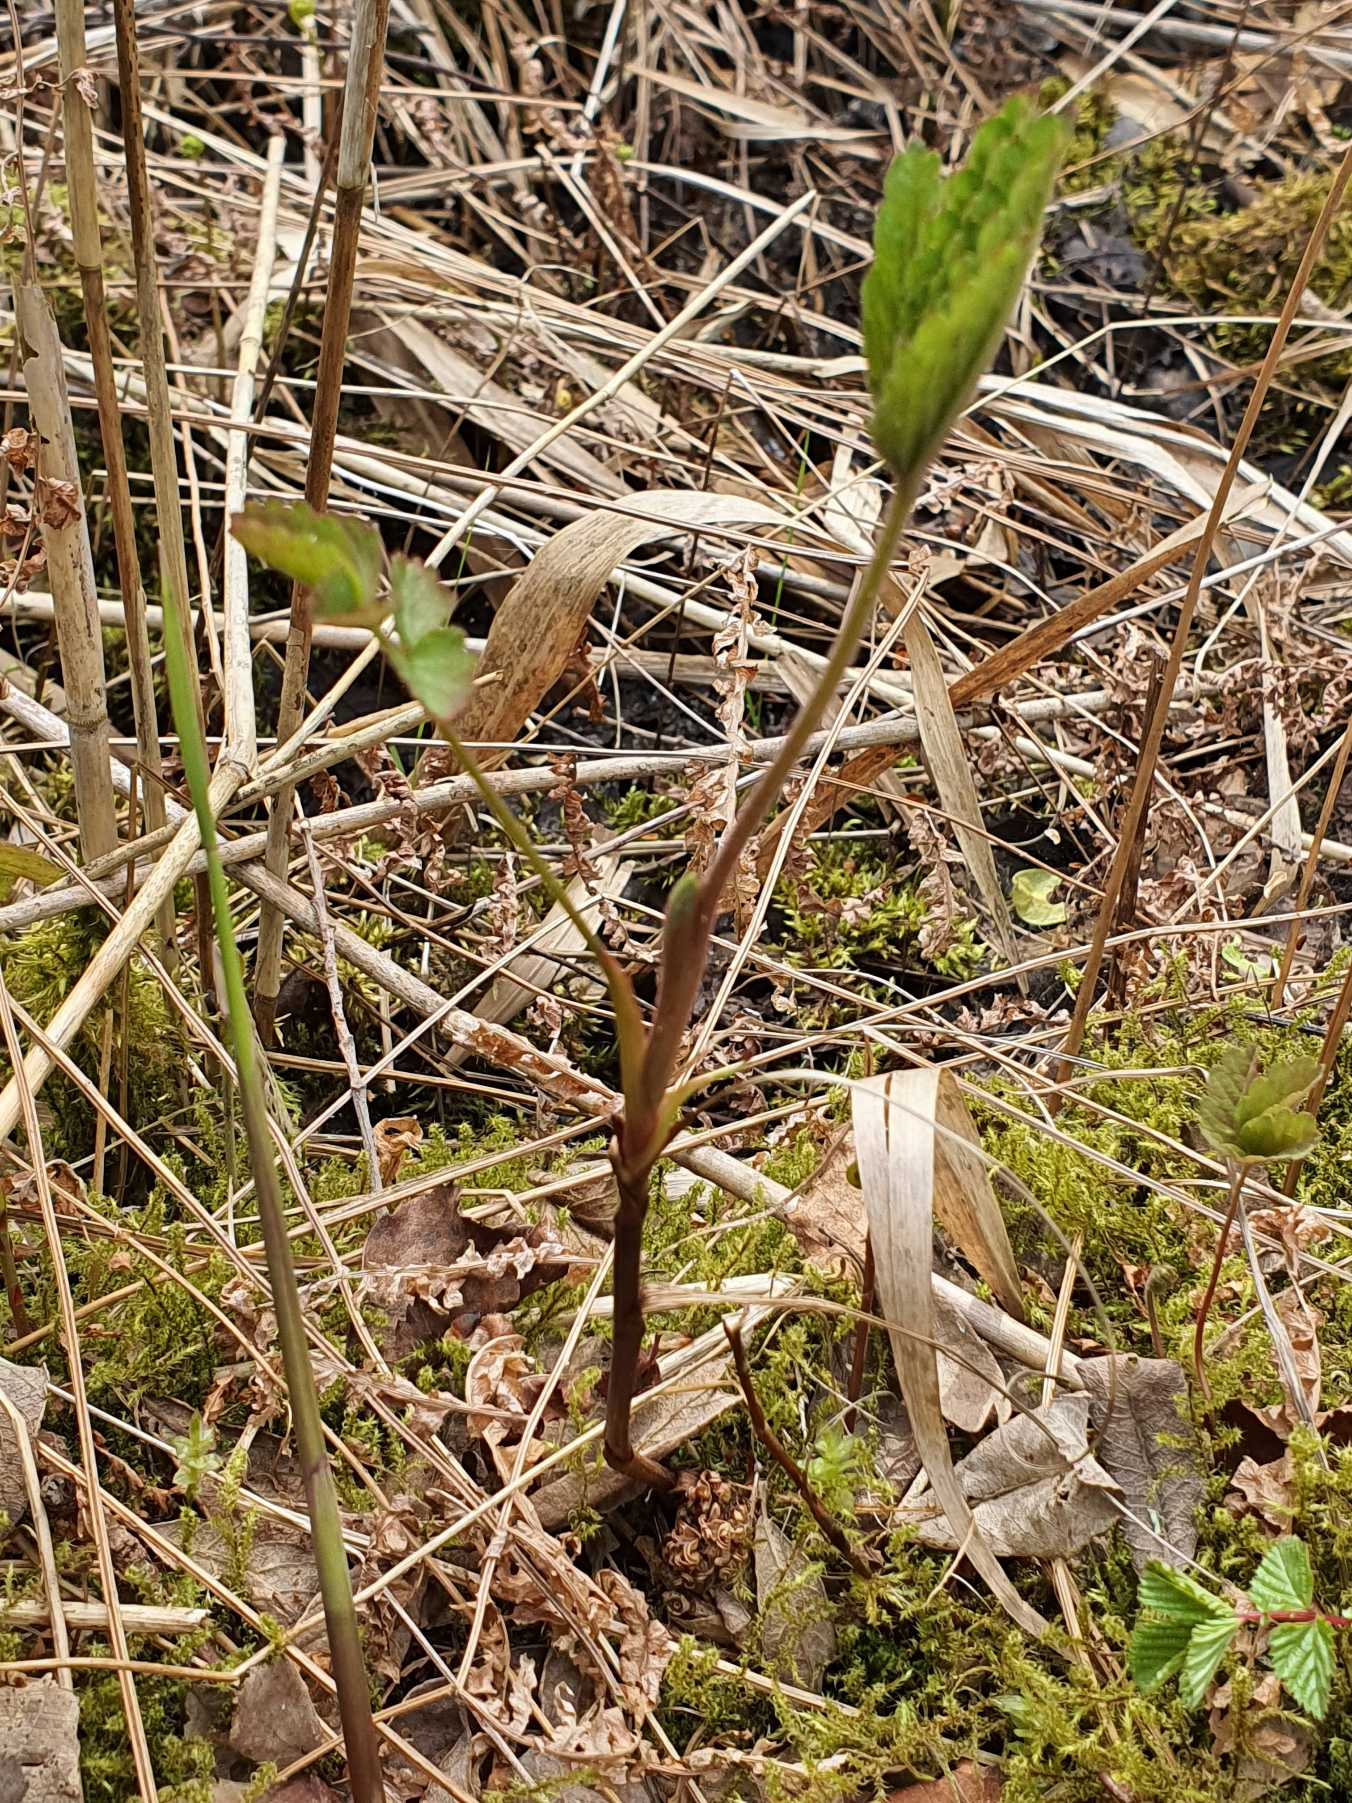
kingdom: Plantae
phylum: Tracheophyta
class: Magnoliopsida
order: Rosales
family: Rosaceae
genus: Comarum
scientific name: Comarum palustre
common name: Kragefod
